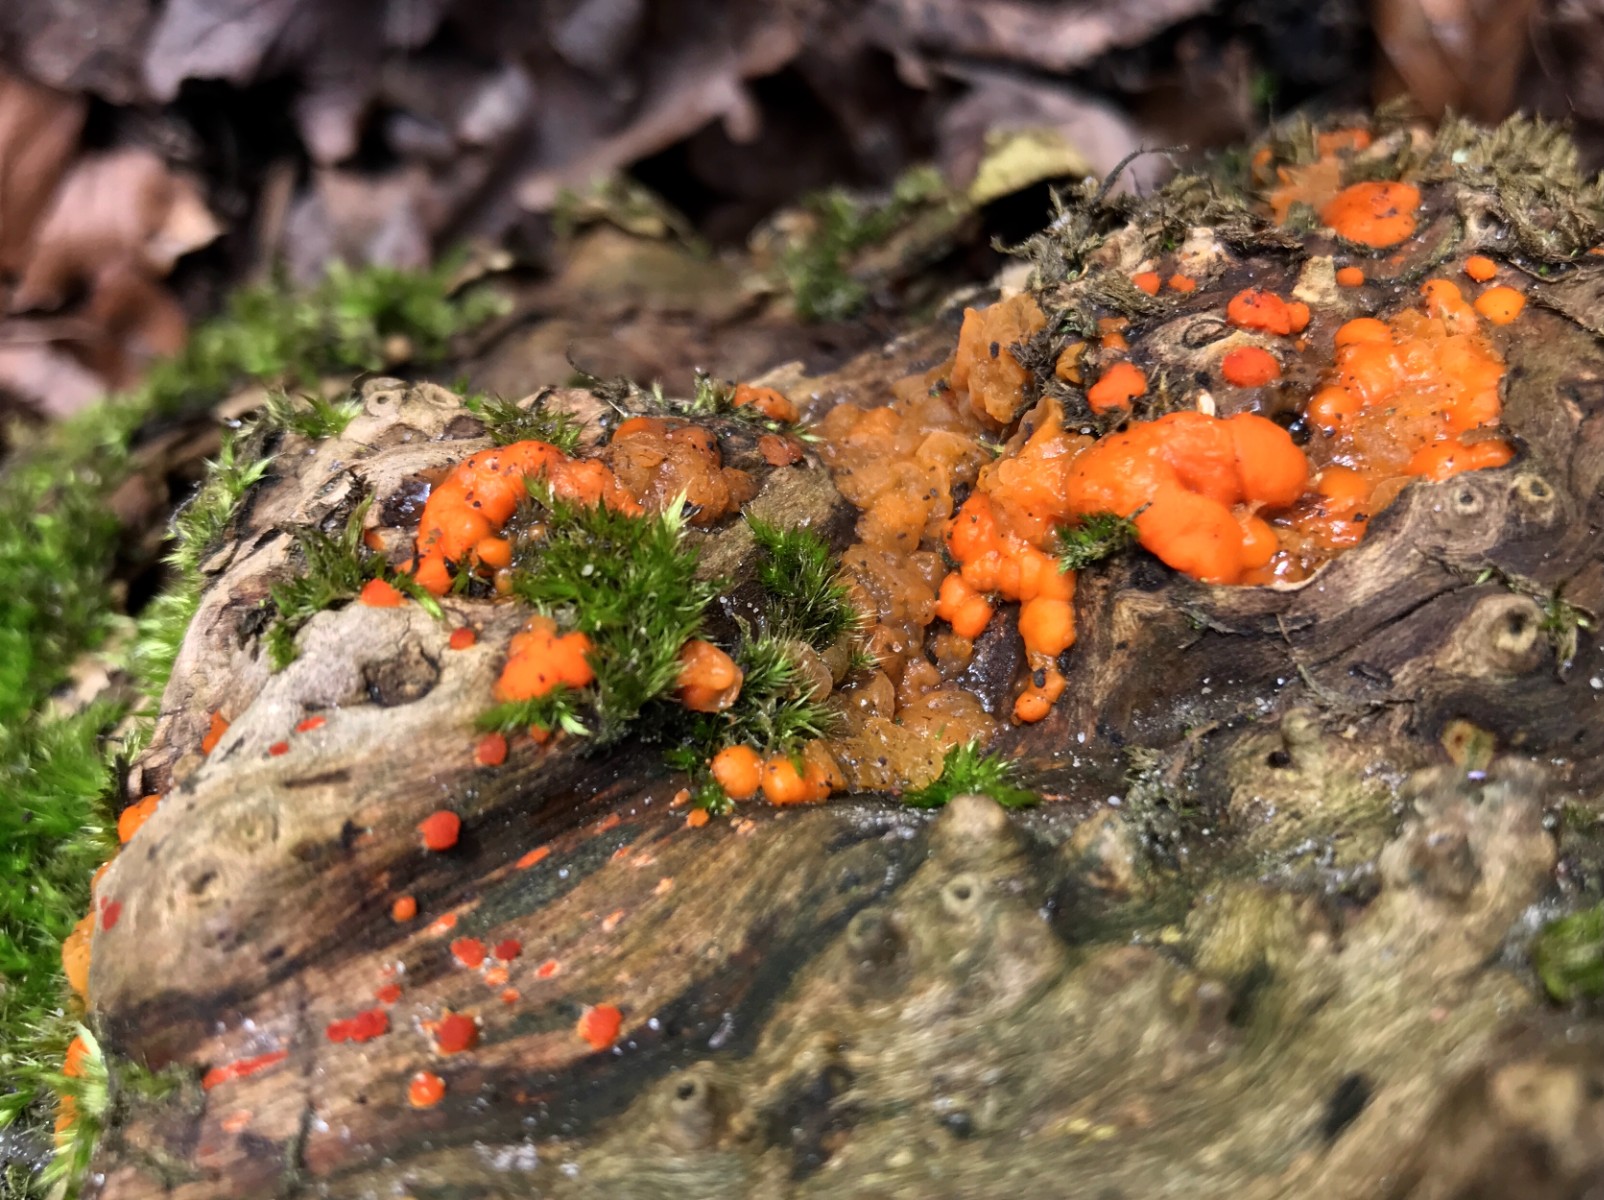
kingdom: Fungi
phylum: Basidiomycota
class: Dacrymycetes
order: Dacrymycetales
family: Dacrymycetaceae
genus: Dacrymyces
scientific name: Dacrymyces stillatus
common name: almindelig tåresvamp
